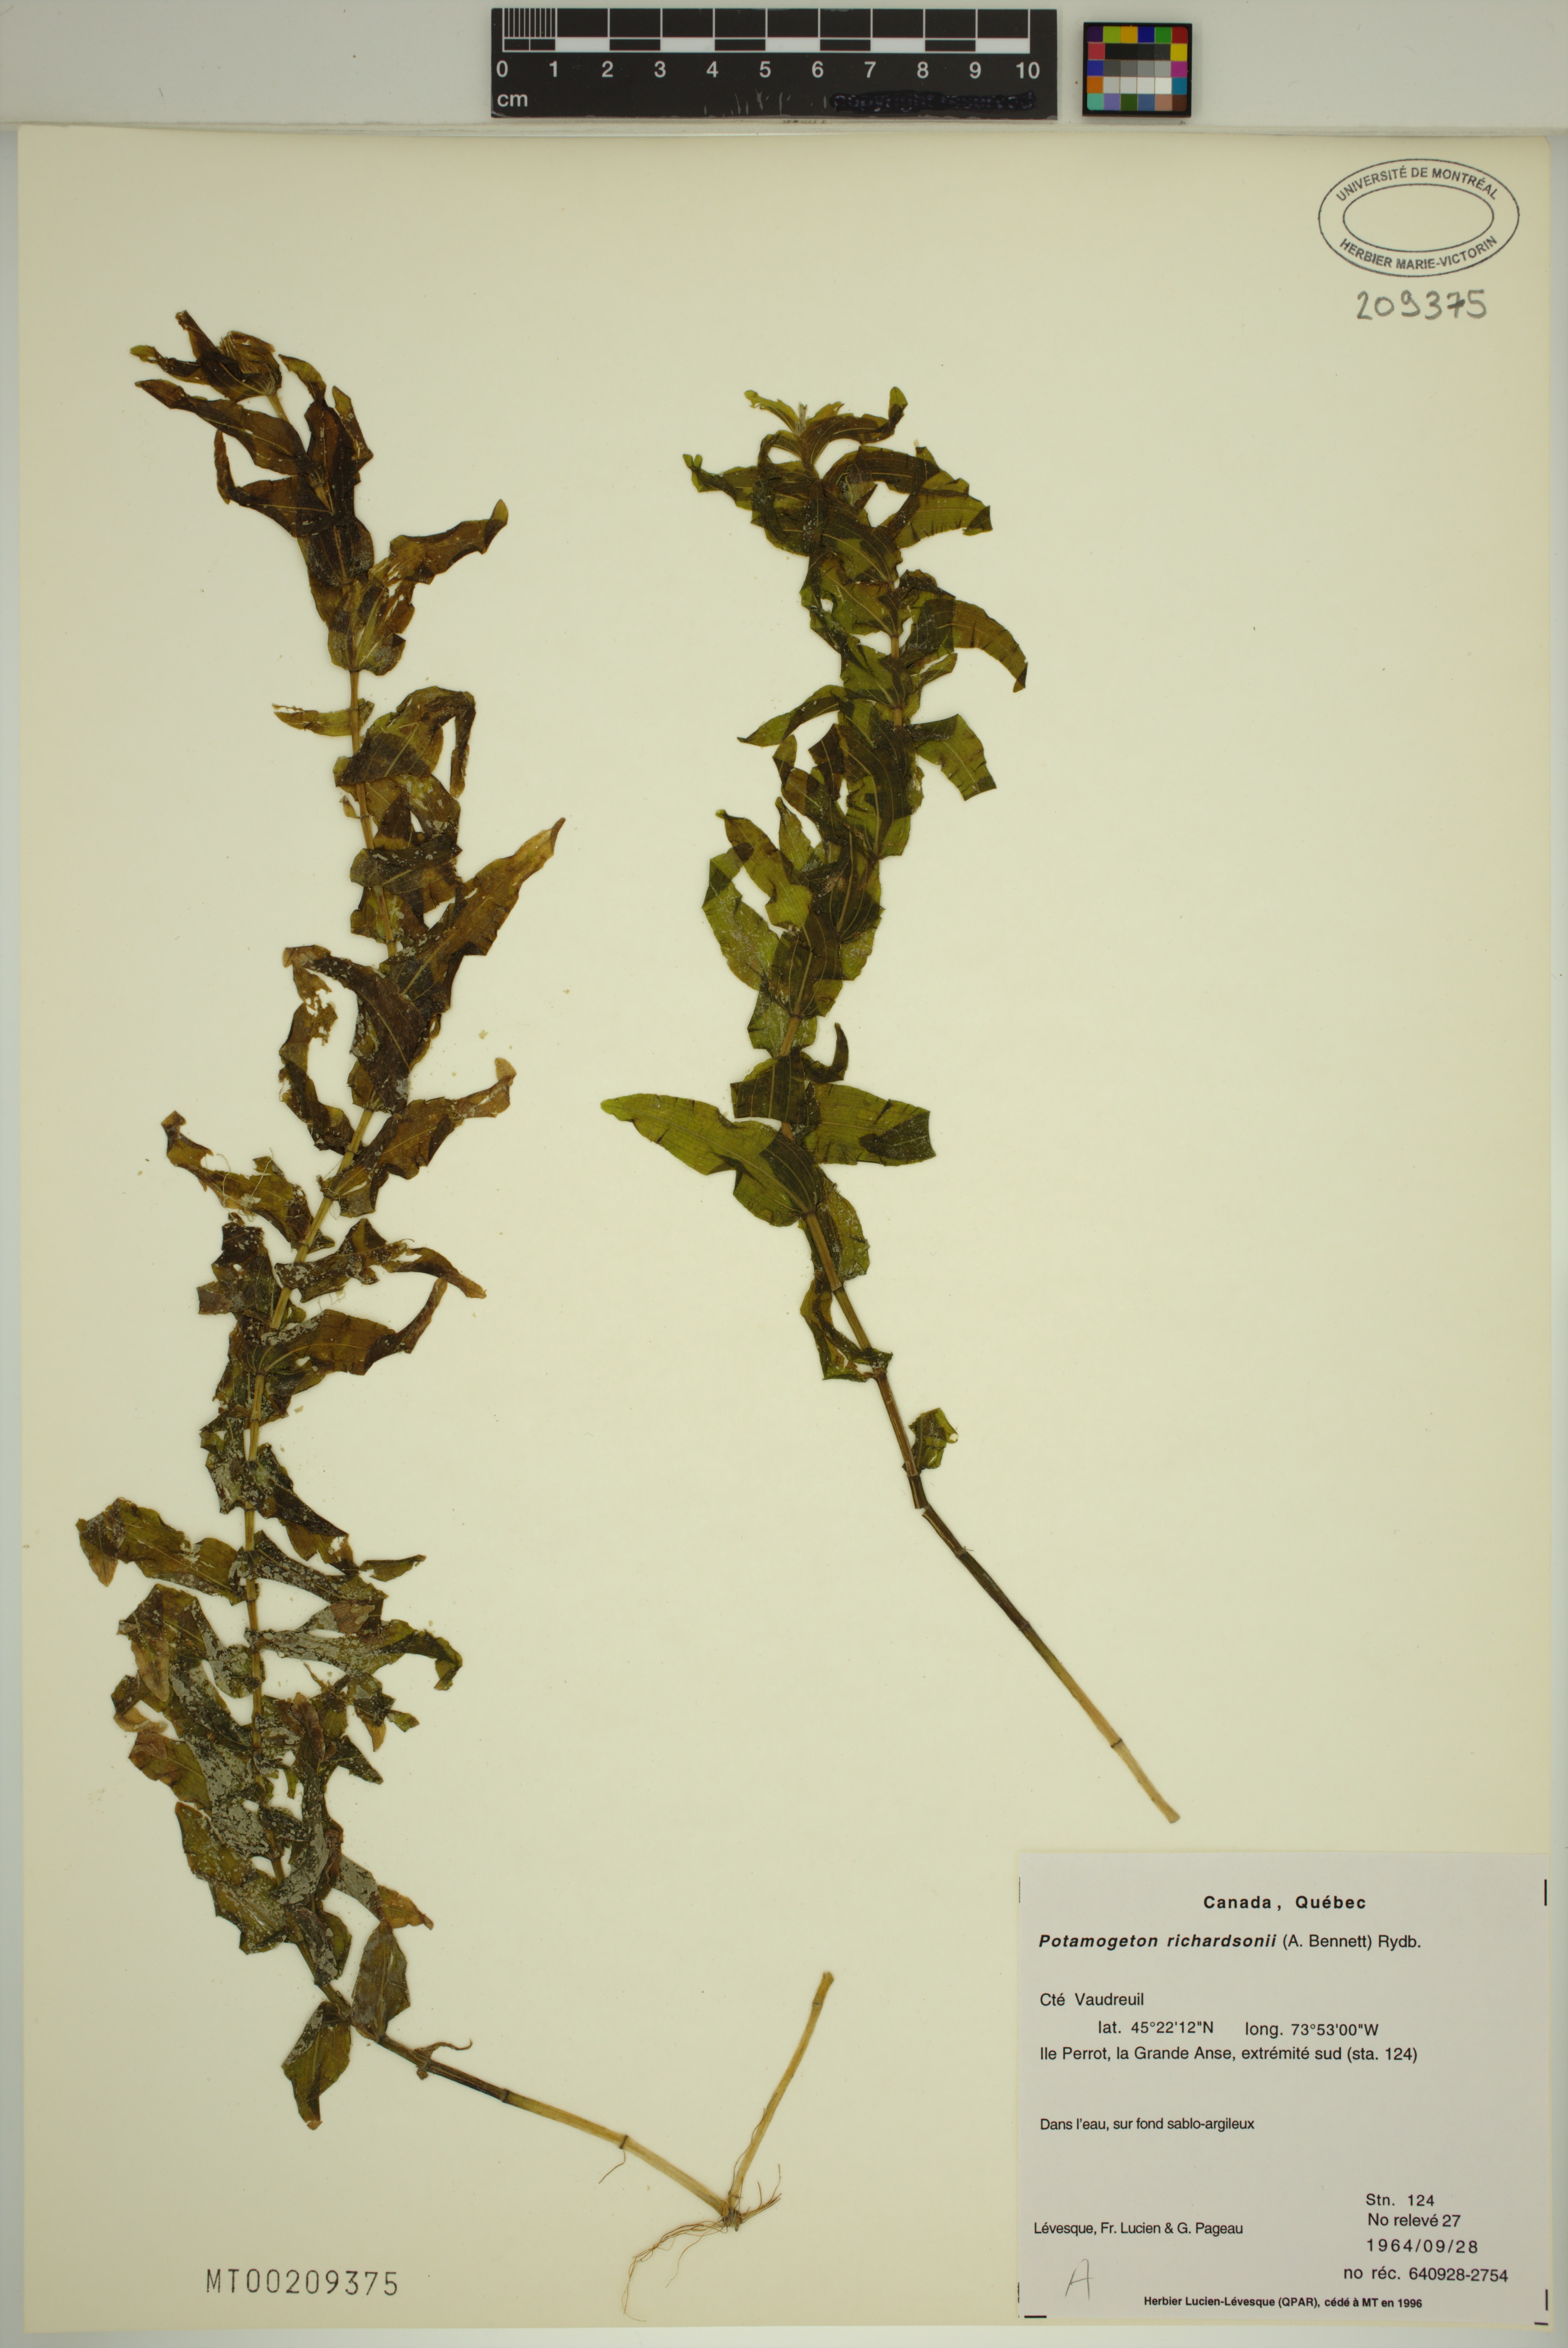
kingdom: Plantae
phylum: Tracheophyta
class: Liliopsida
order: Alismatales
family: Potamogetonaceae
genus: Potamogeton
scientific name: Potamogeton richardsonii
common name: Richardson's pondweed
